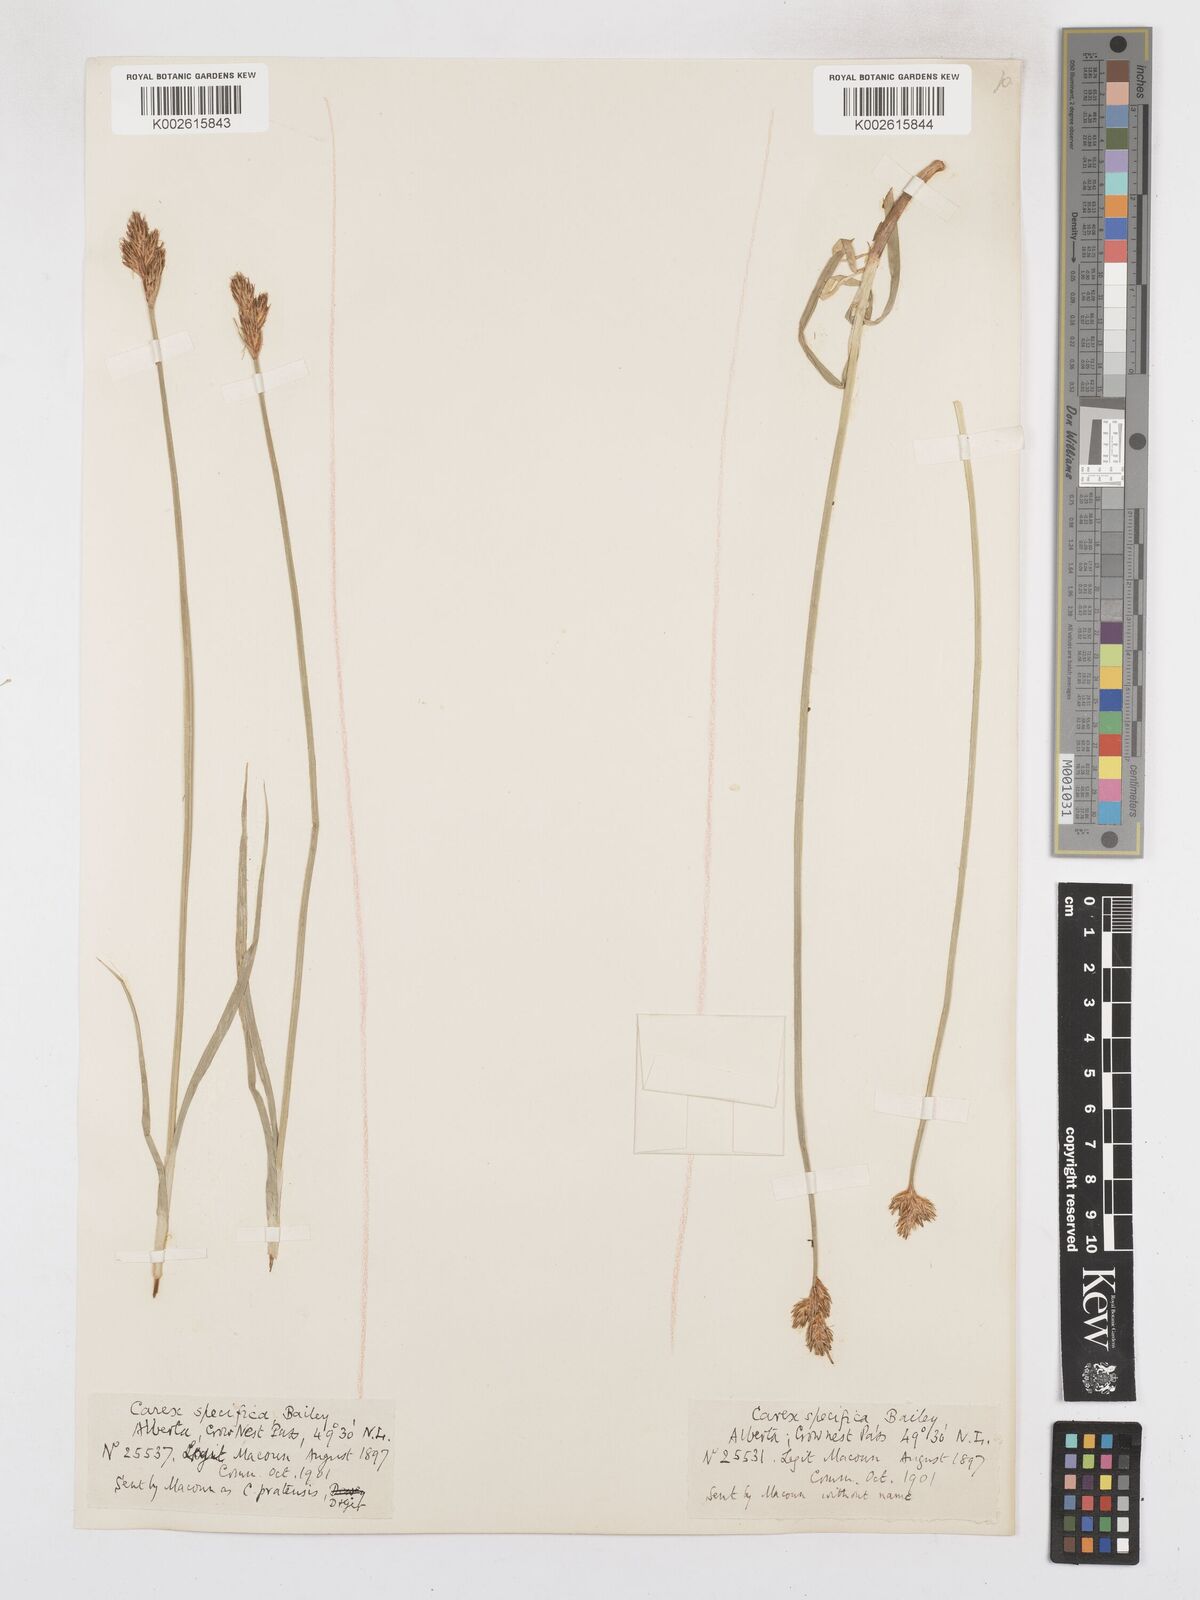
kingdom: Plantae
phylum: Tracheophyta
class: Liliopsida
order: Poales
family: Cyperaceae
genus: Carex
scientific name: Carex specifica
